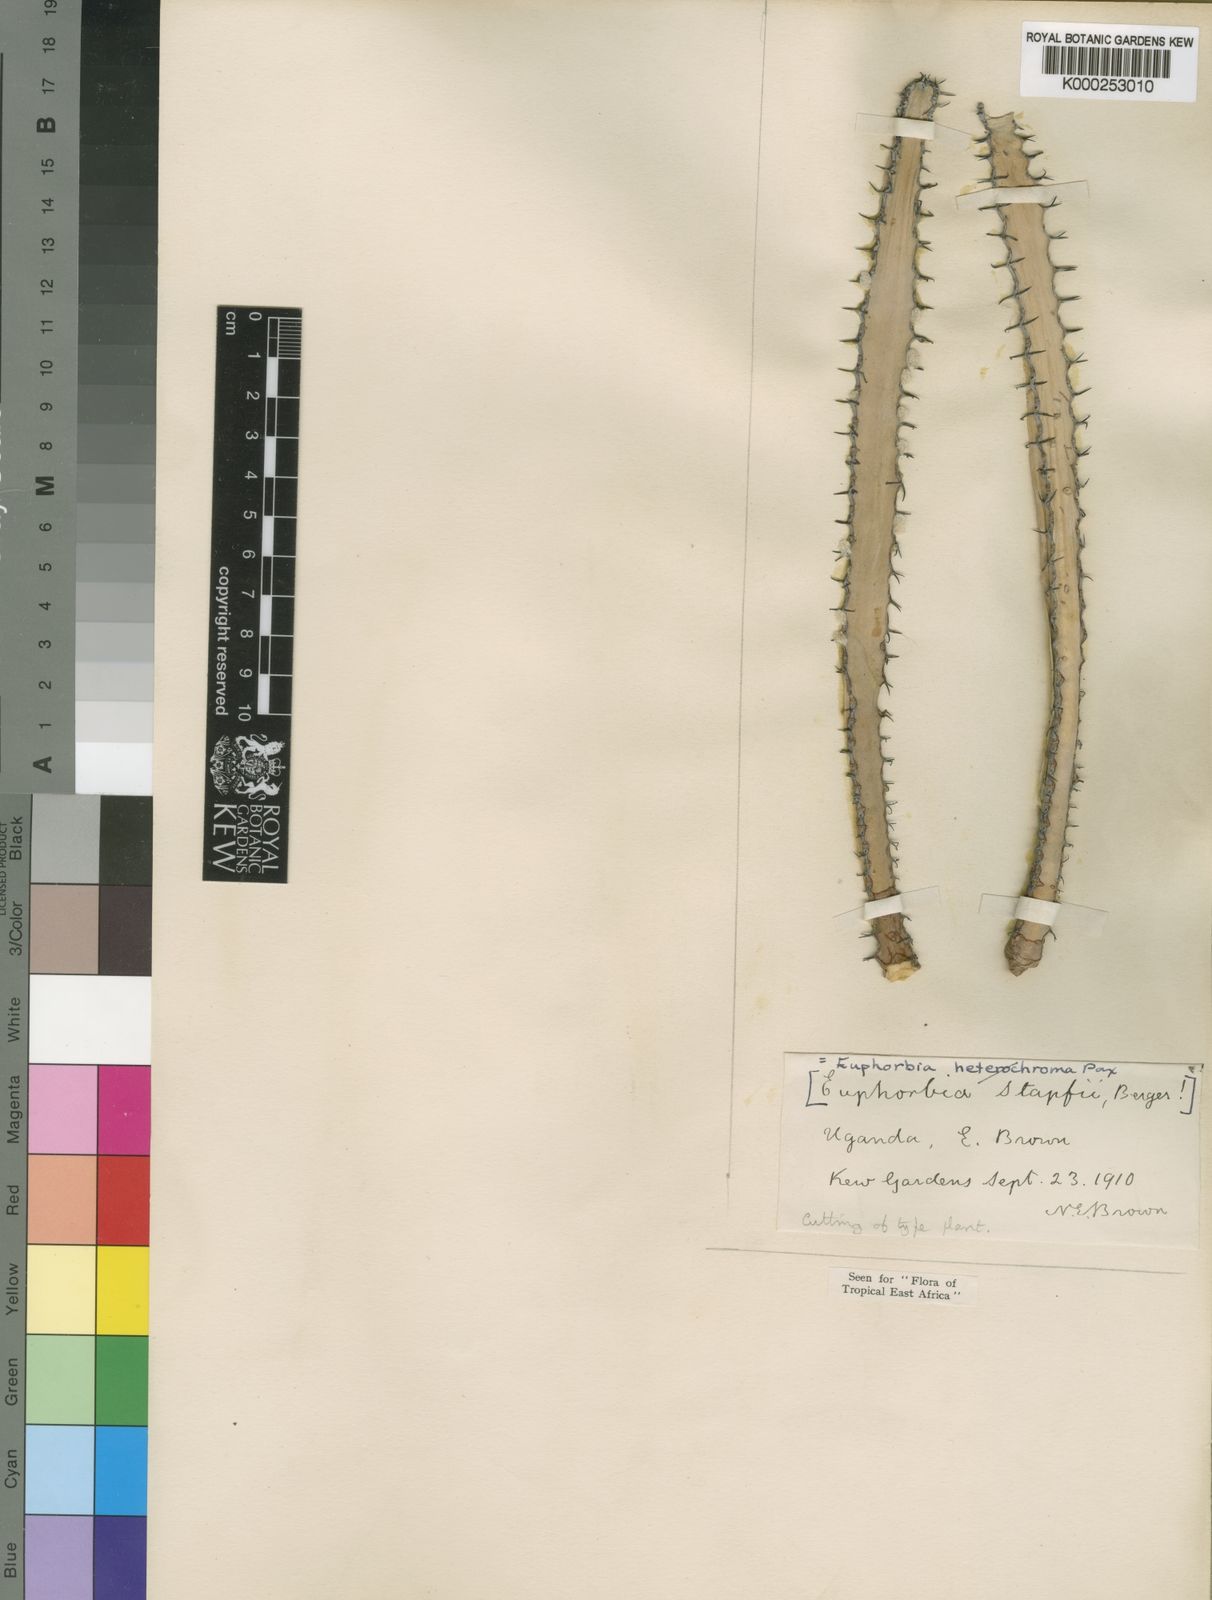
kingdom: Plantae
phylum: Tracheophyta
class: Magnoliopsida
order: Malpighiales
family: Euphorbiaceae
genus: Euphorbia
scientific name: Euphorbia stapfii
